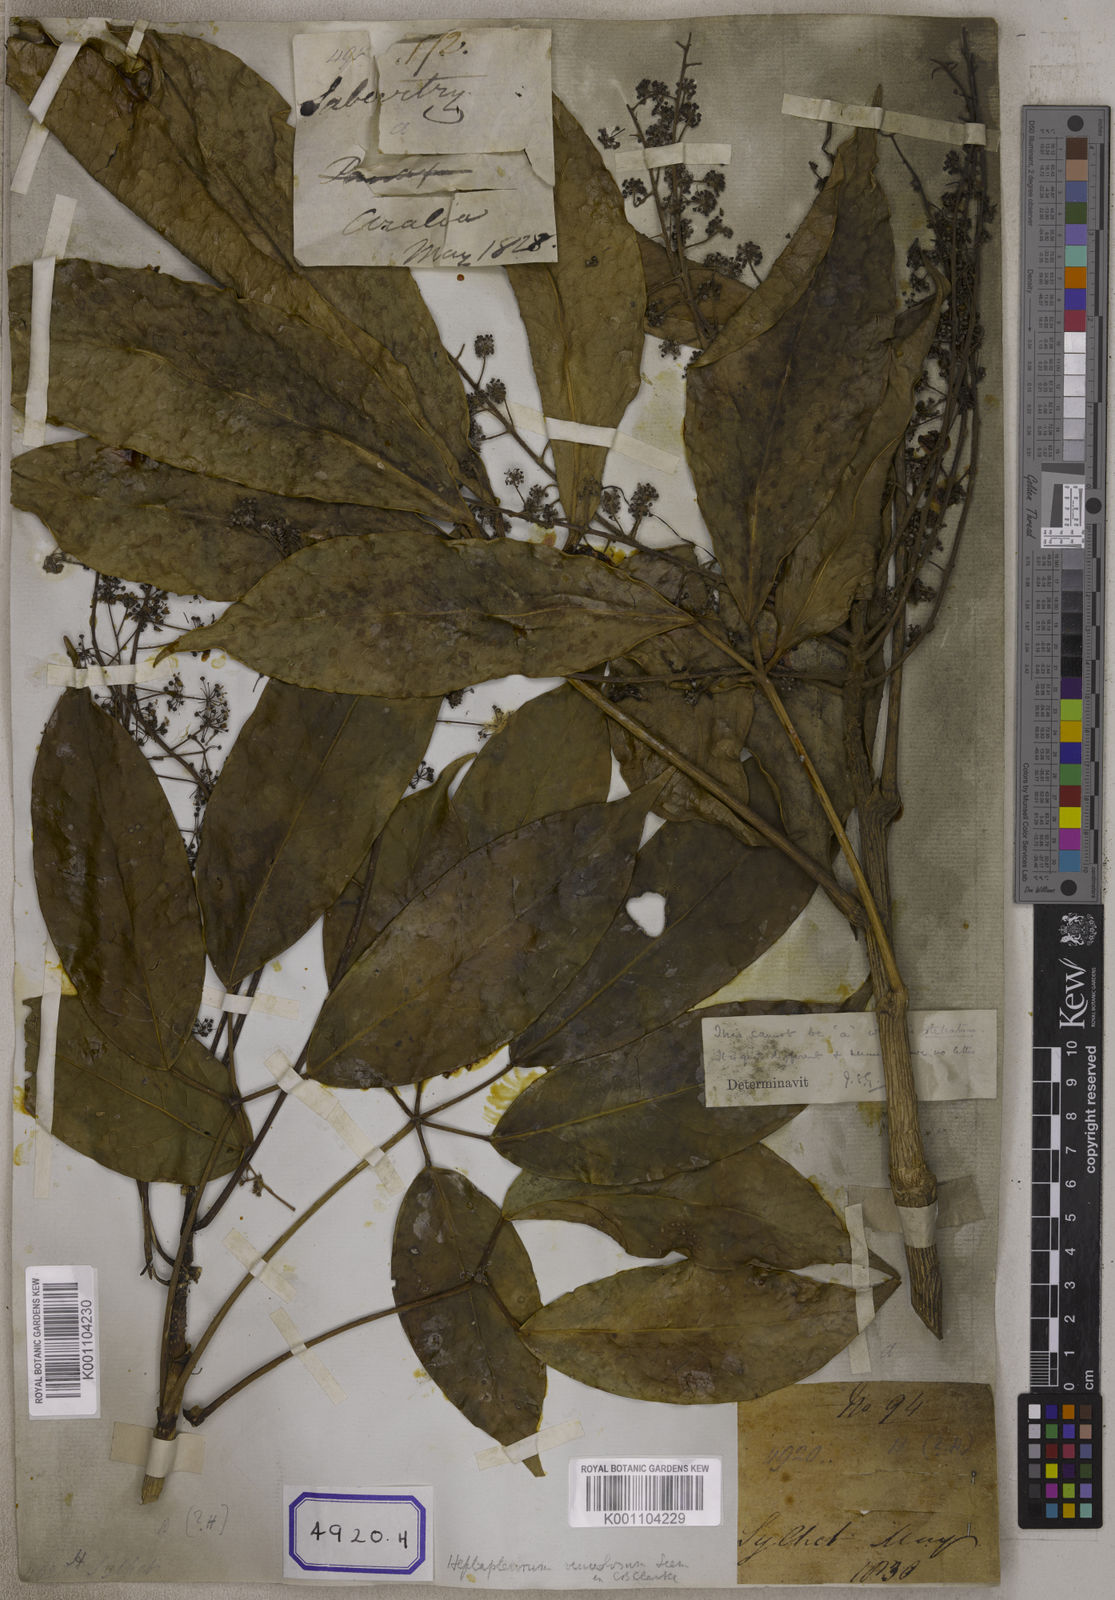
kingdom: Plantae
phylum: Tracheophyta
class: Magnoliopsida
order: Apiales
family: Araliaceae
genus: Hedera
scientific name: Hedera
